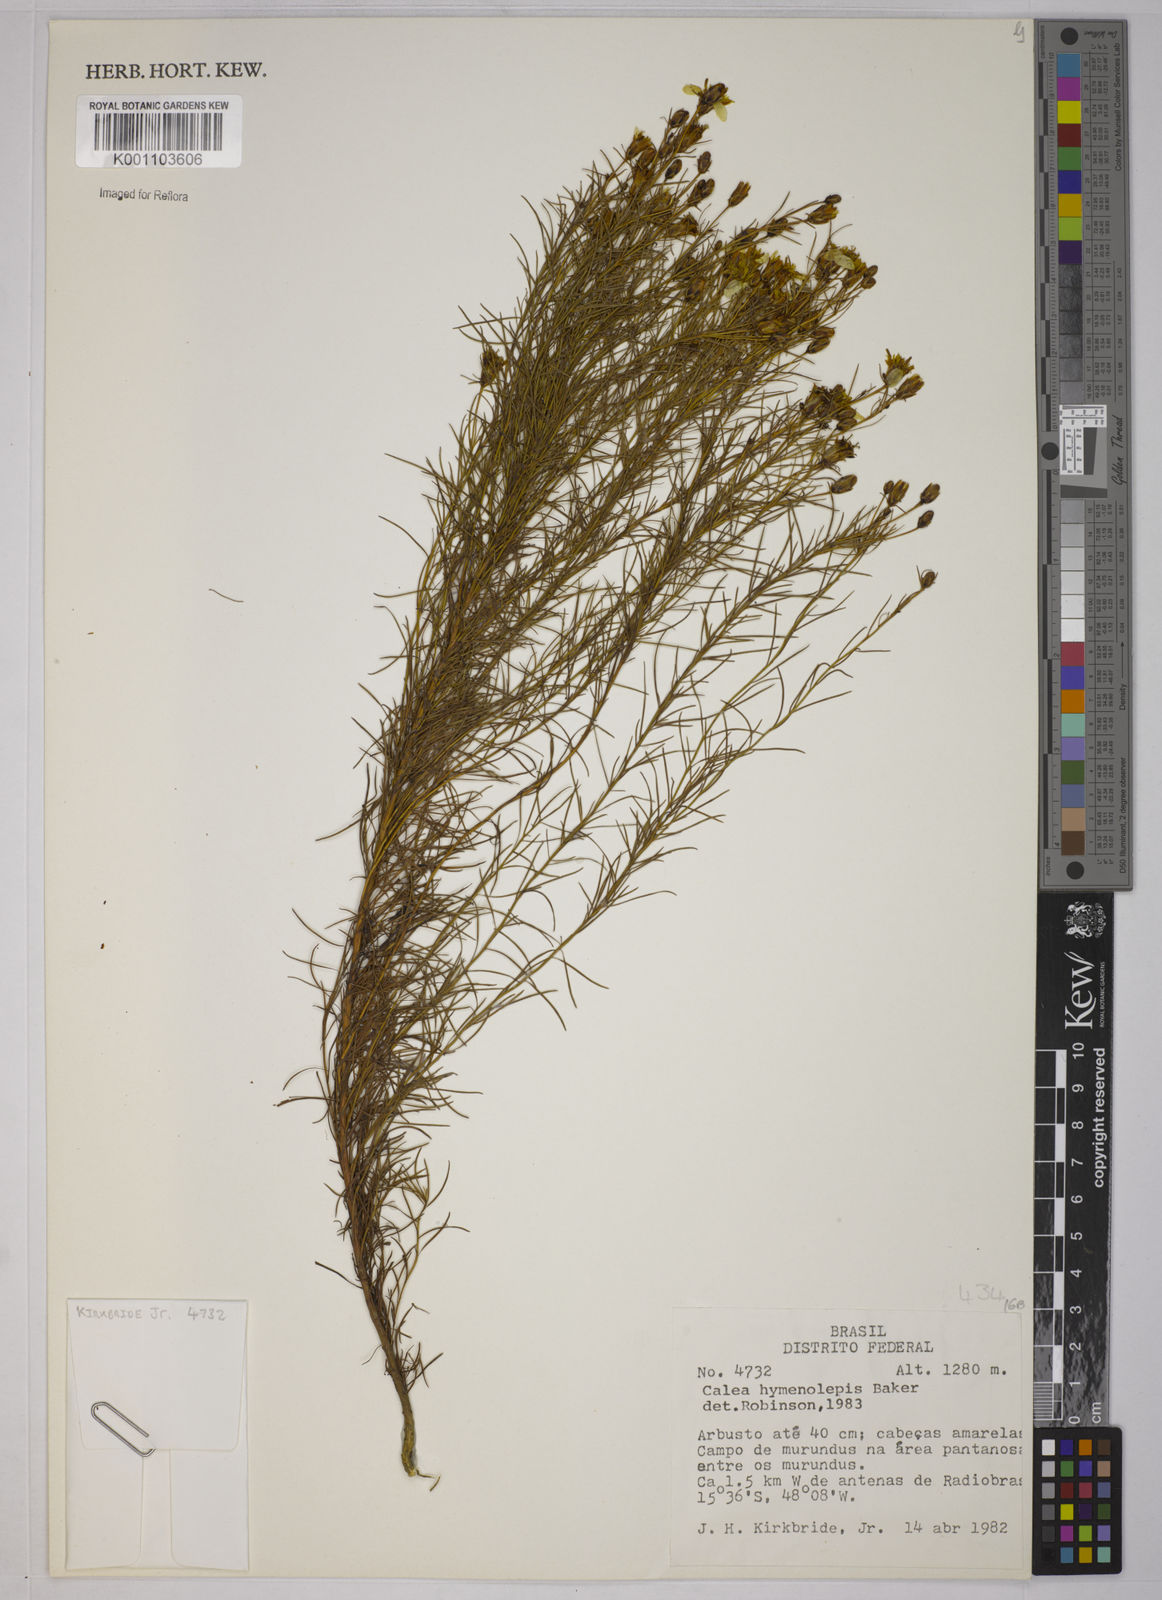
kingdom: Plantae
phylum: Tracheophyta
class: Magnoliopsida
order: Asterales
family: Asteraceae
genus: Calea
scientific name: Calea hymenolepis
